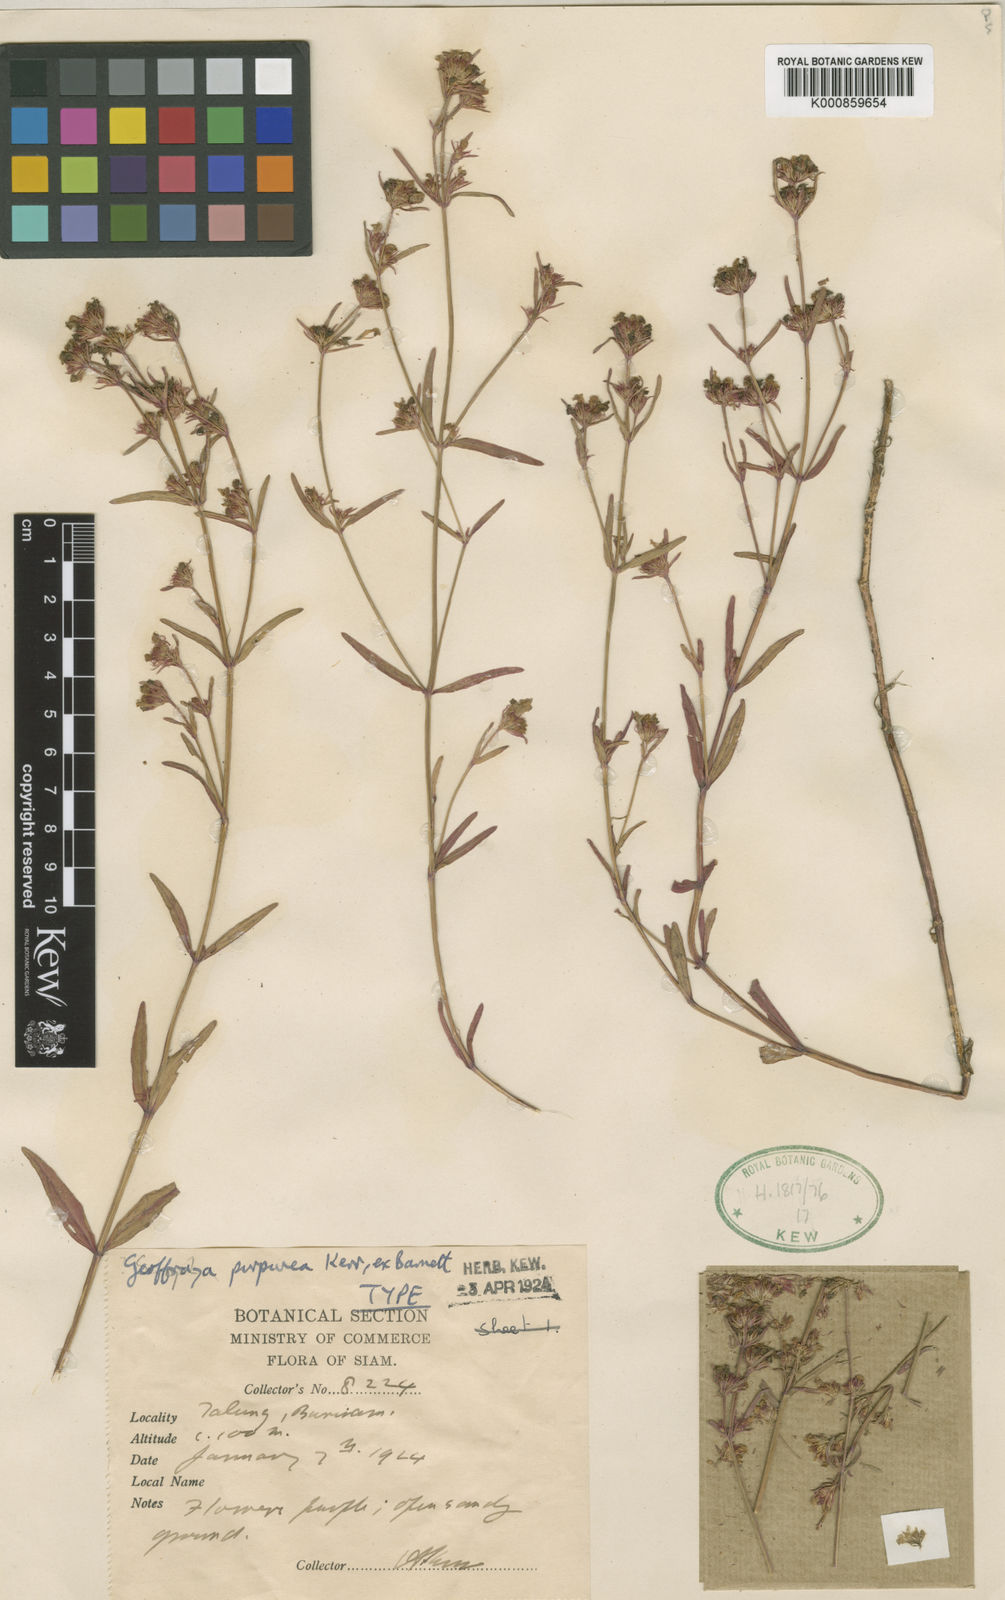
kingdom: Plantae
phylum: Tracheophyta
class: Magnoliopsida
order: Lamiales
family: Linderniaceae
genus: Vandellia
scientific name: Vandellia purpurea
